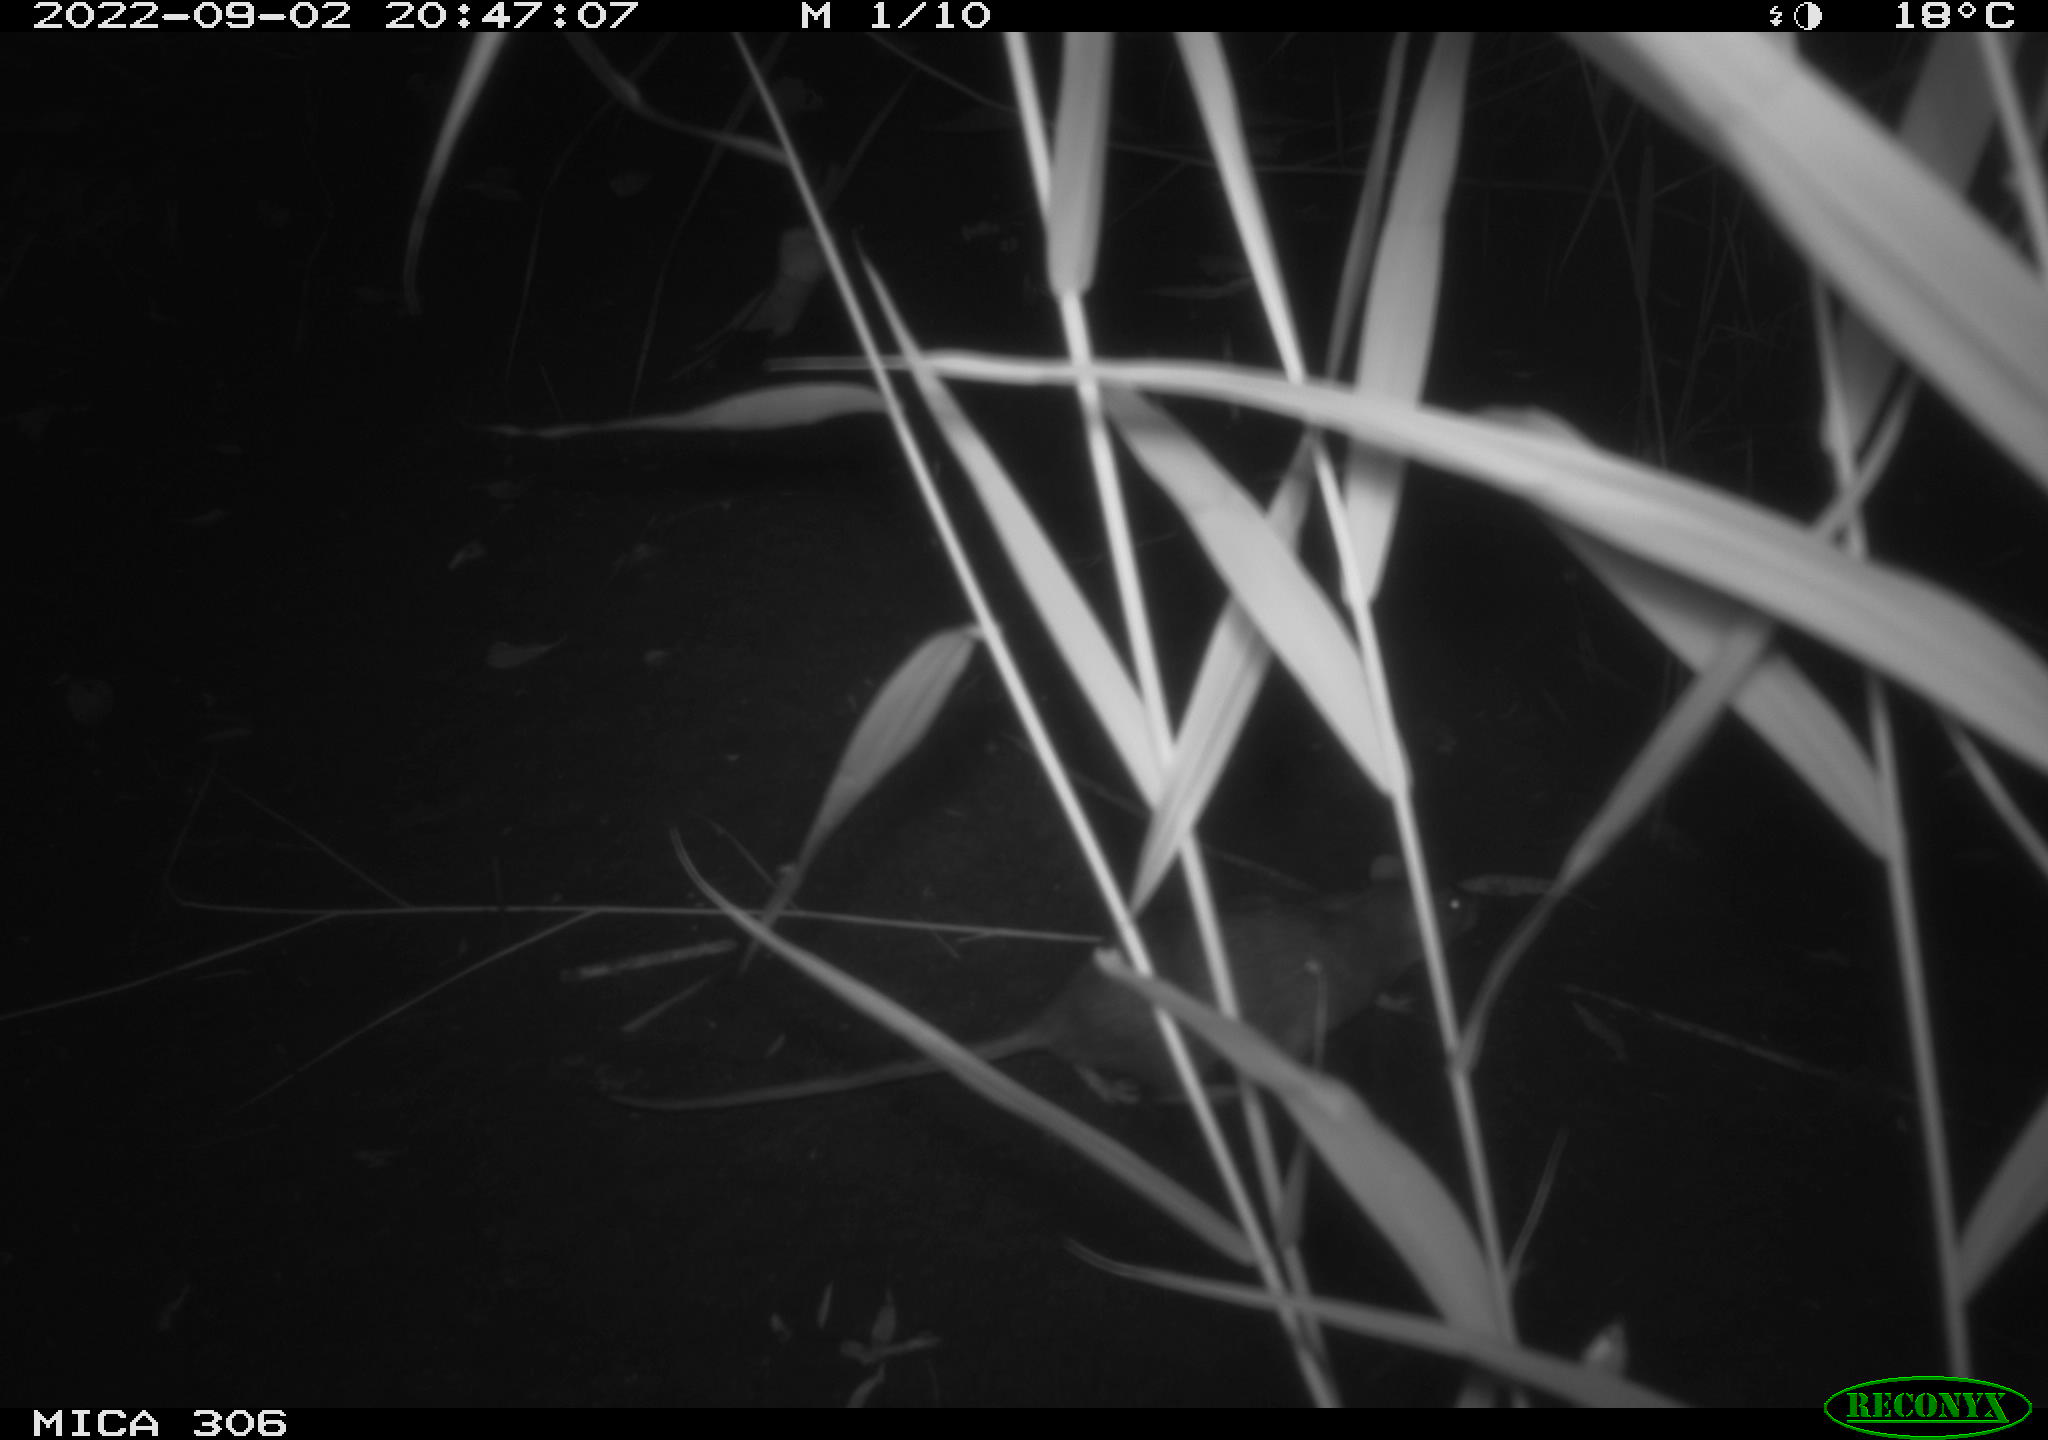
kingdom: Animalia
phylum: Chordata
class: Mammalia
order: Rodentia
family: Muridae
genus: Rattus
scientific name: Rattus norvegicus
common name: Brown rat
